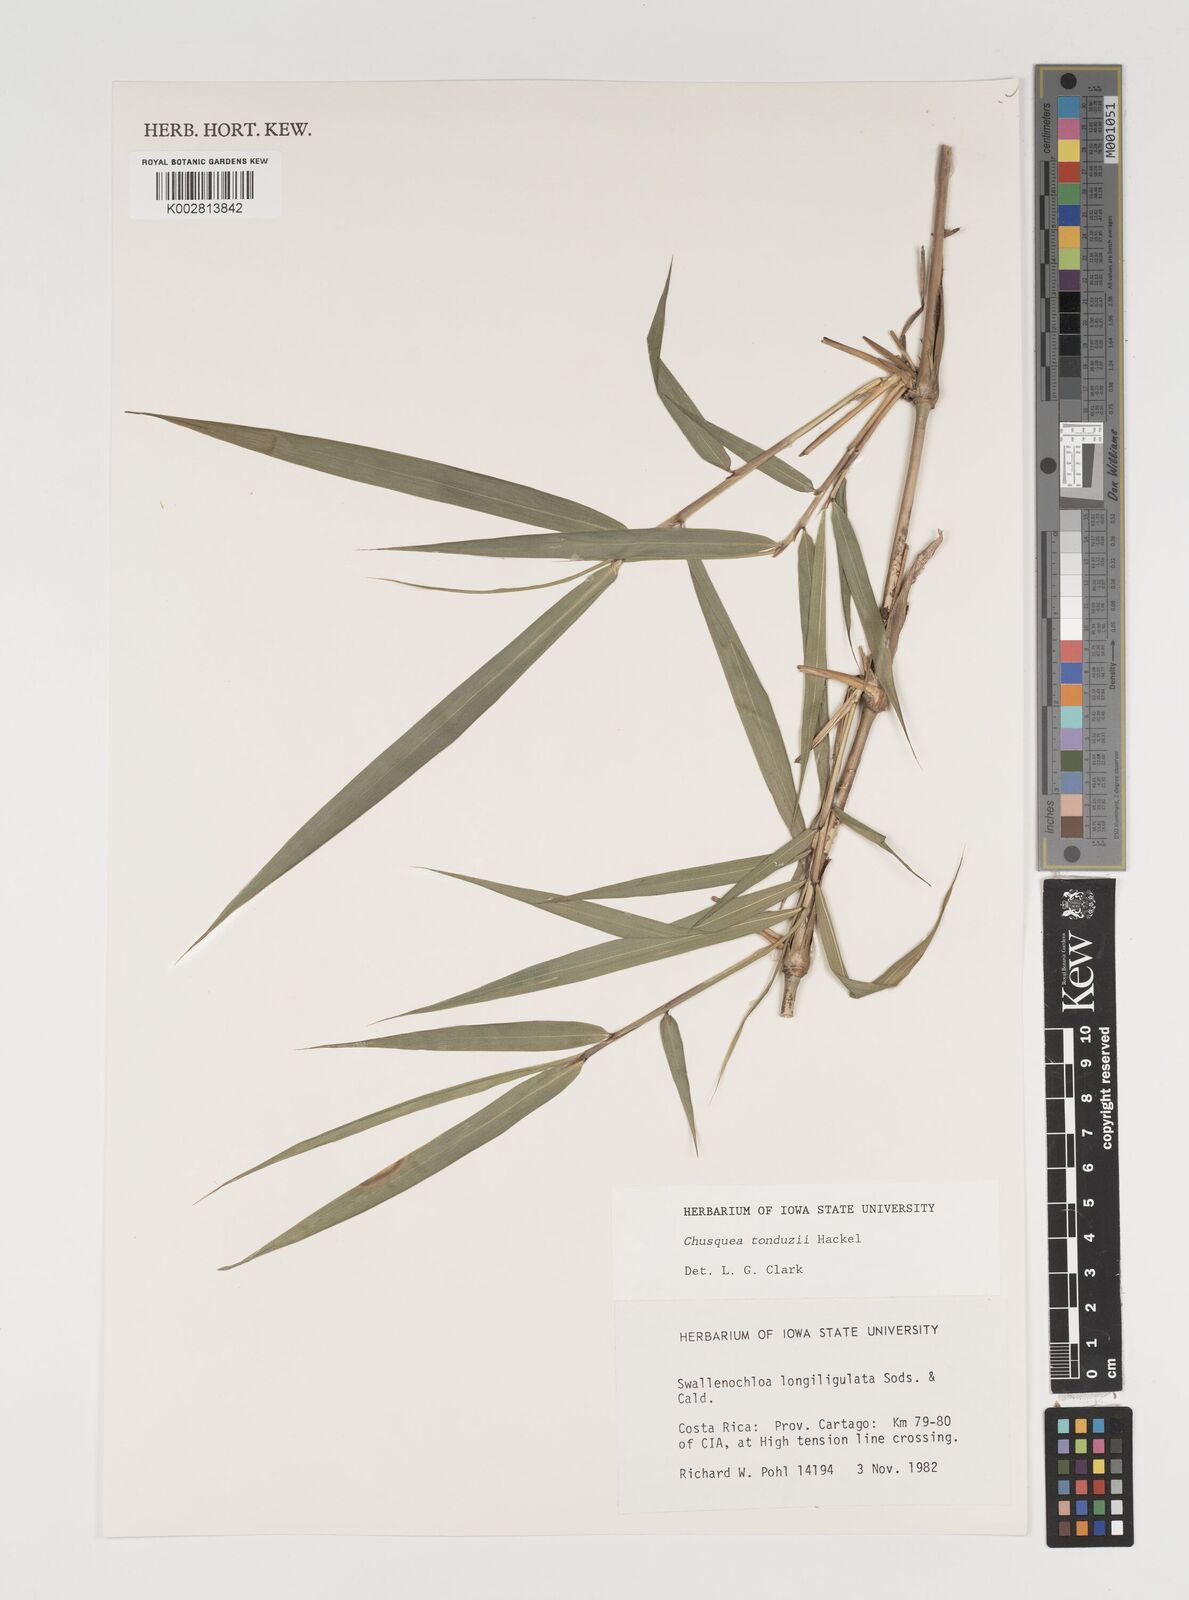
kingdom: Plantae
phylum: Tracheophyta
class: Liliopsida
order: Poales
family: Poaceae
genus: Chusquea
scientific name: Chusquea tonduzii
